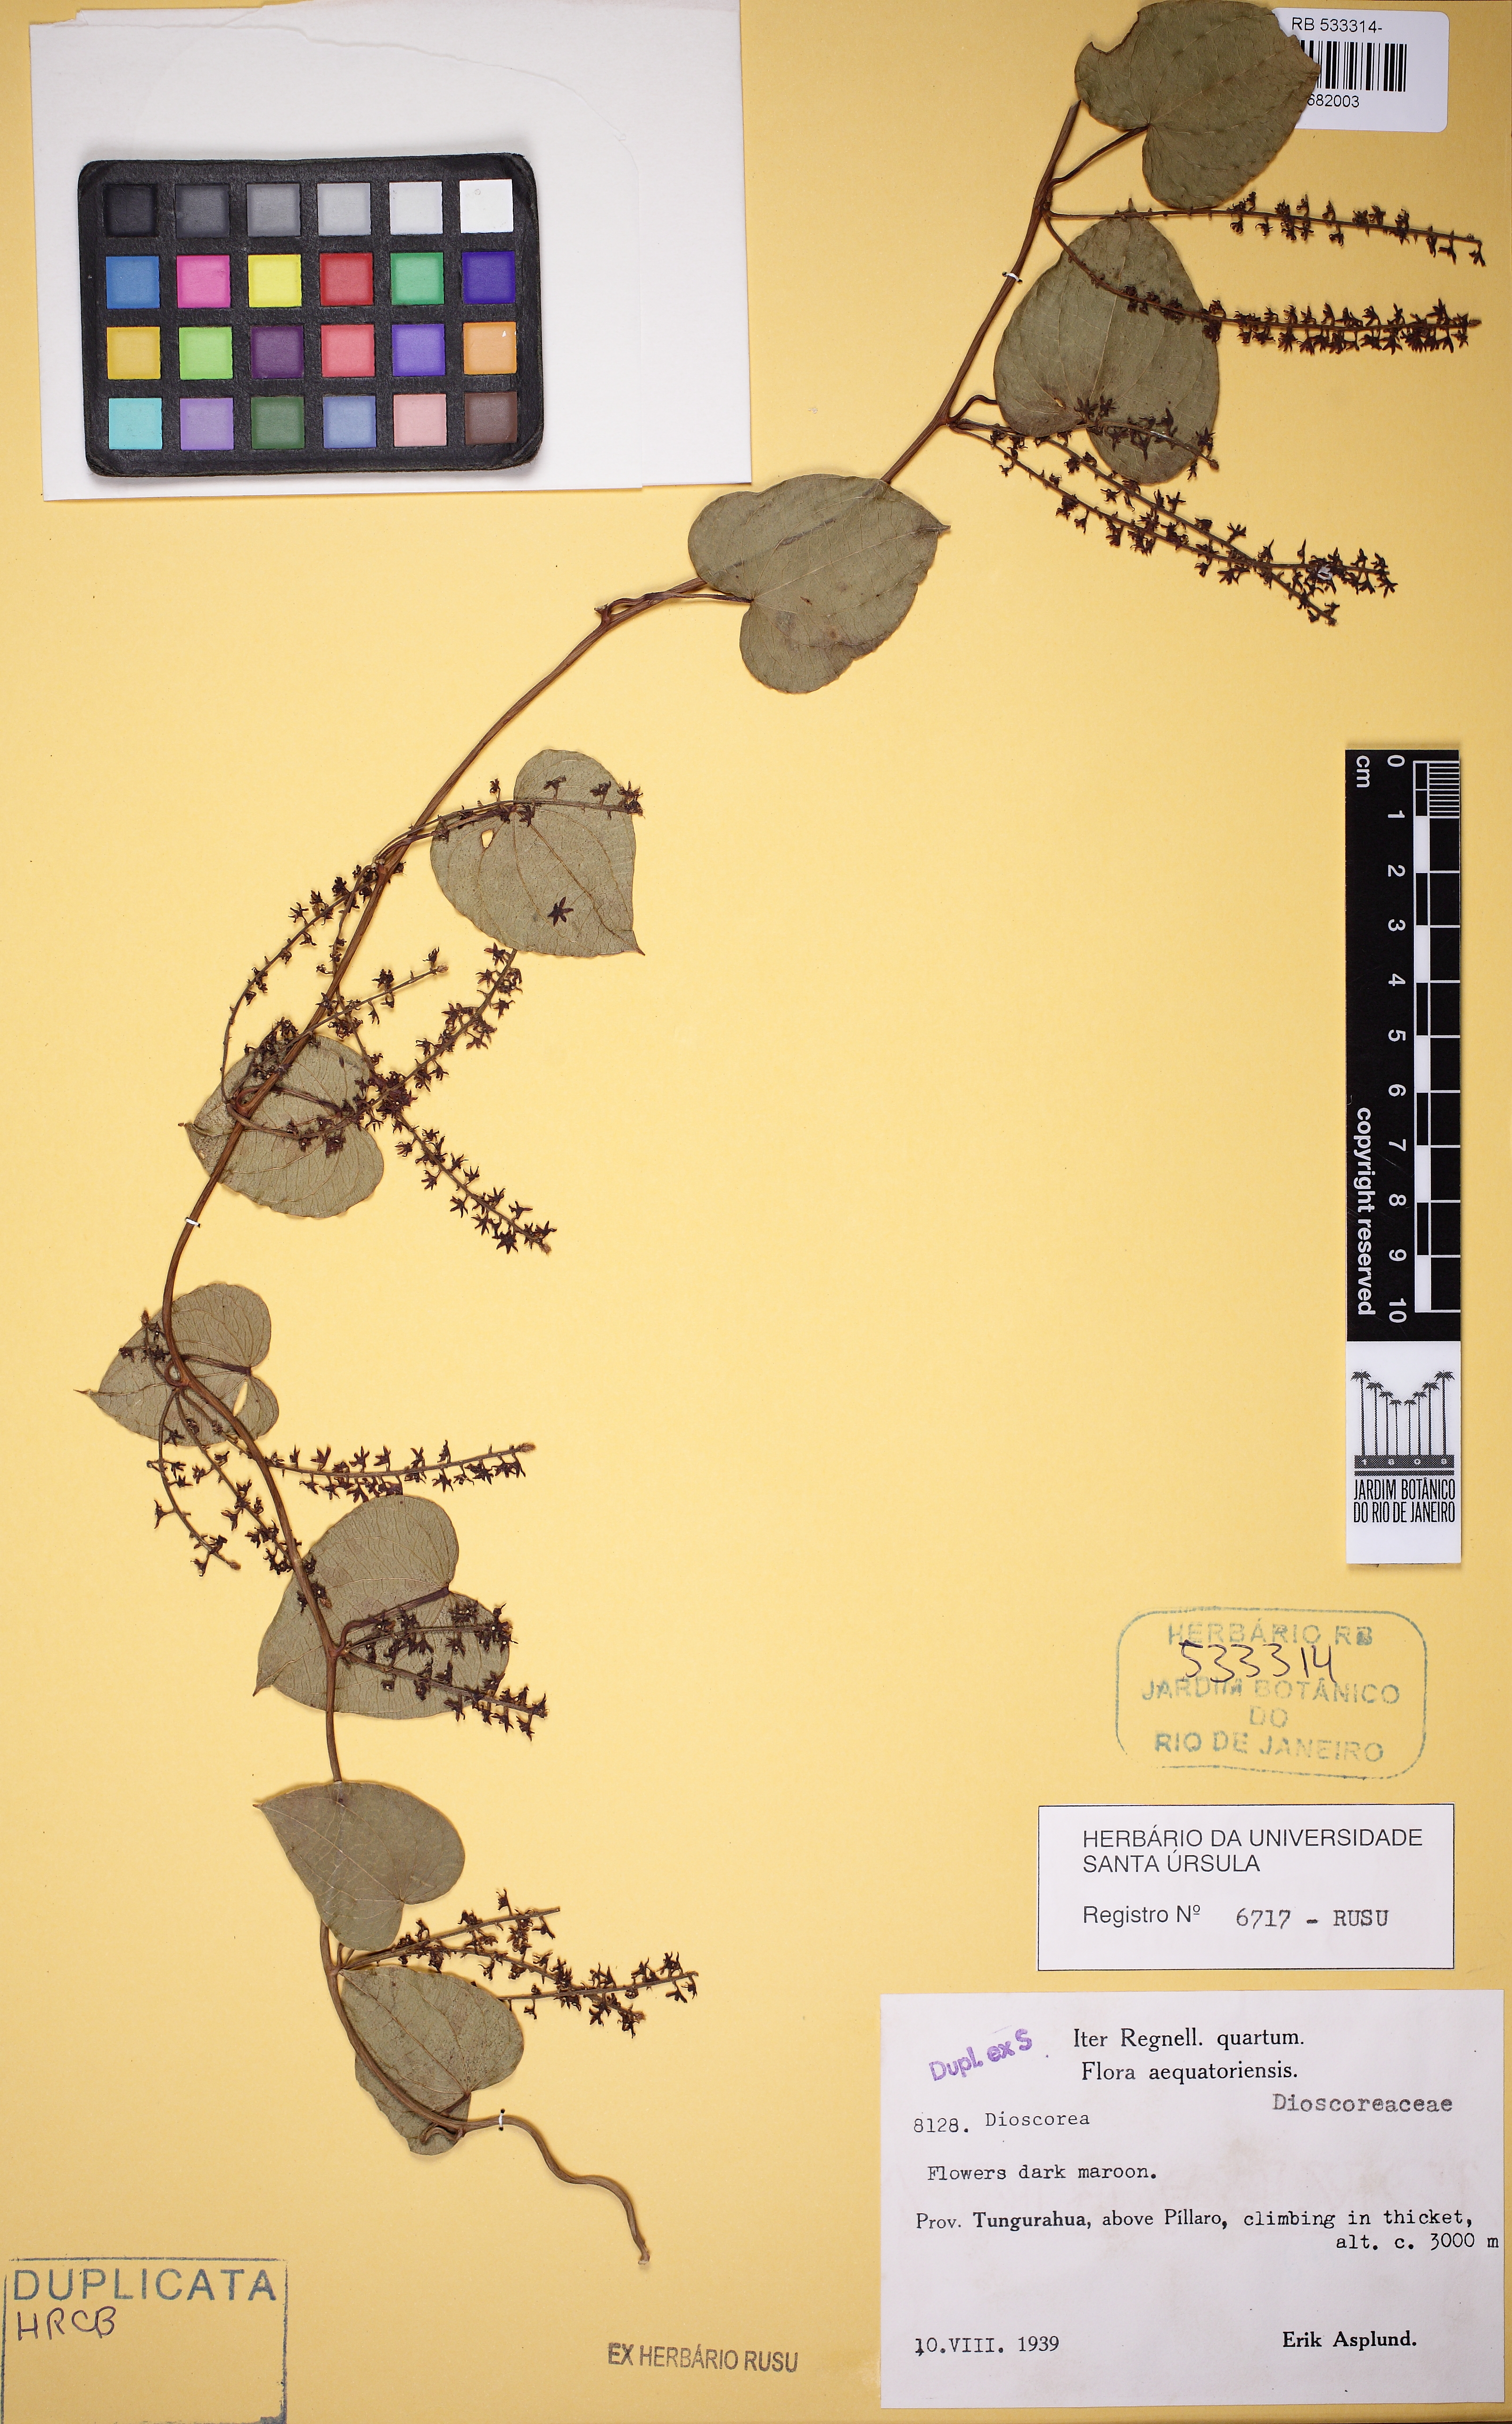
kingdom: Plantae
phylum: Tracheophyta
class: Liliopsida
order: Dioscoreales
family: Dioscoreaceae
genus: Dioscorea
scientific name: Dioscorea
